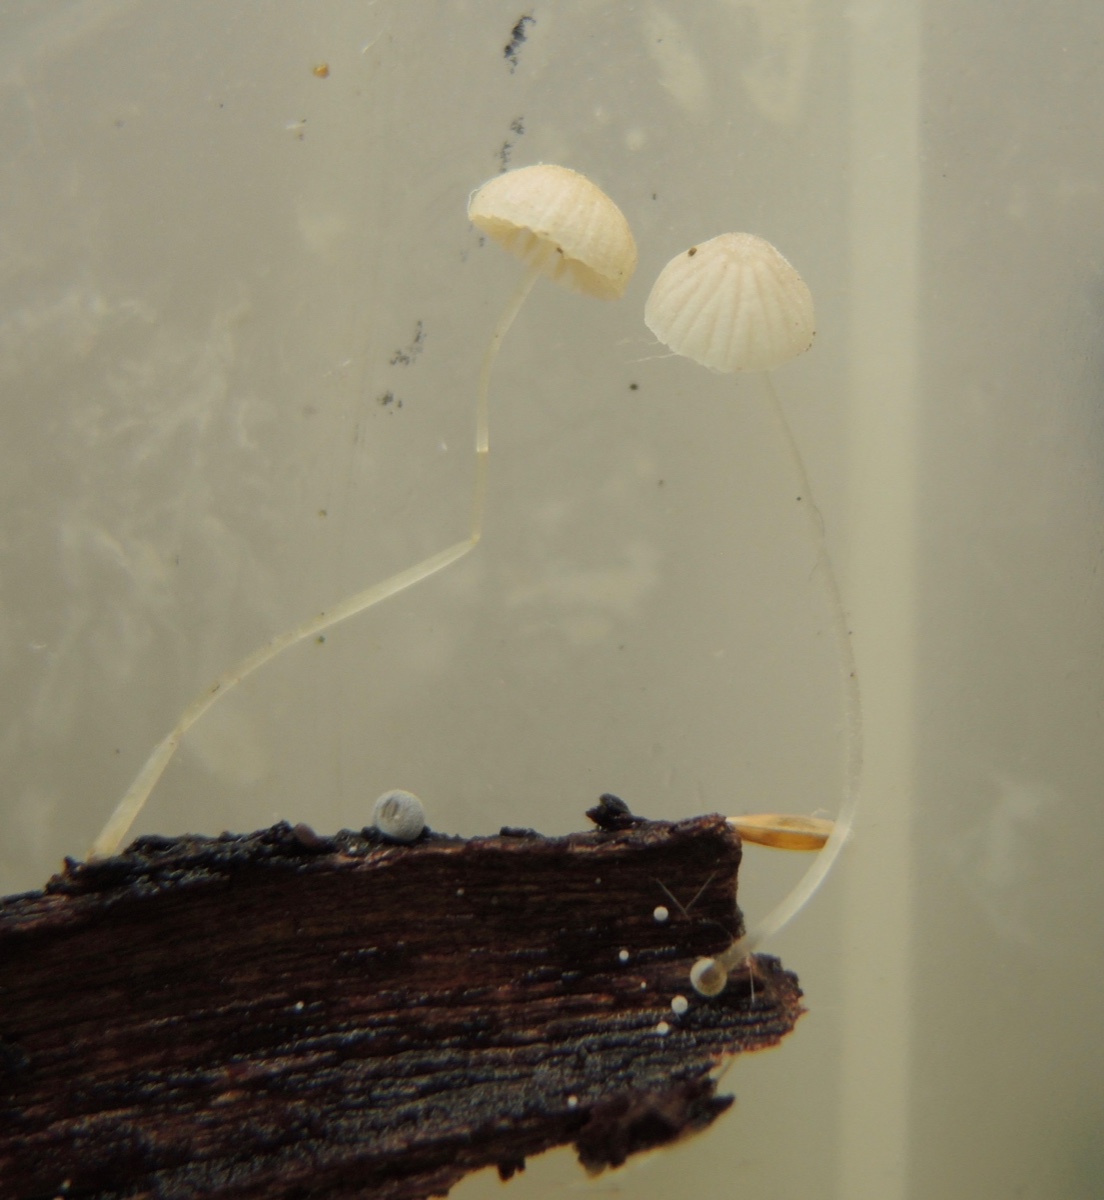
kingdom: Fungi
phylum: Basidiomycota
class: Agaricomycetes
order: Agaricales
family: Mycenaceae
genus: Mycena
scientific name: Mycena tenerrima
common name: pudret huesvamp
